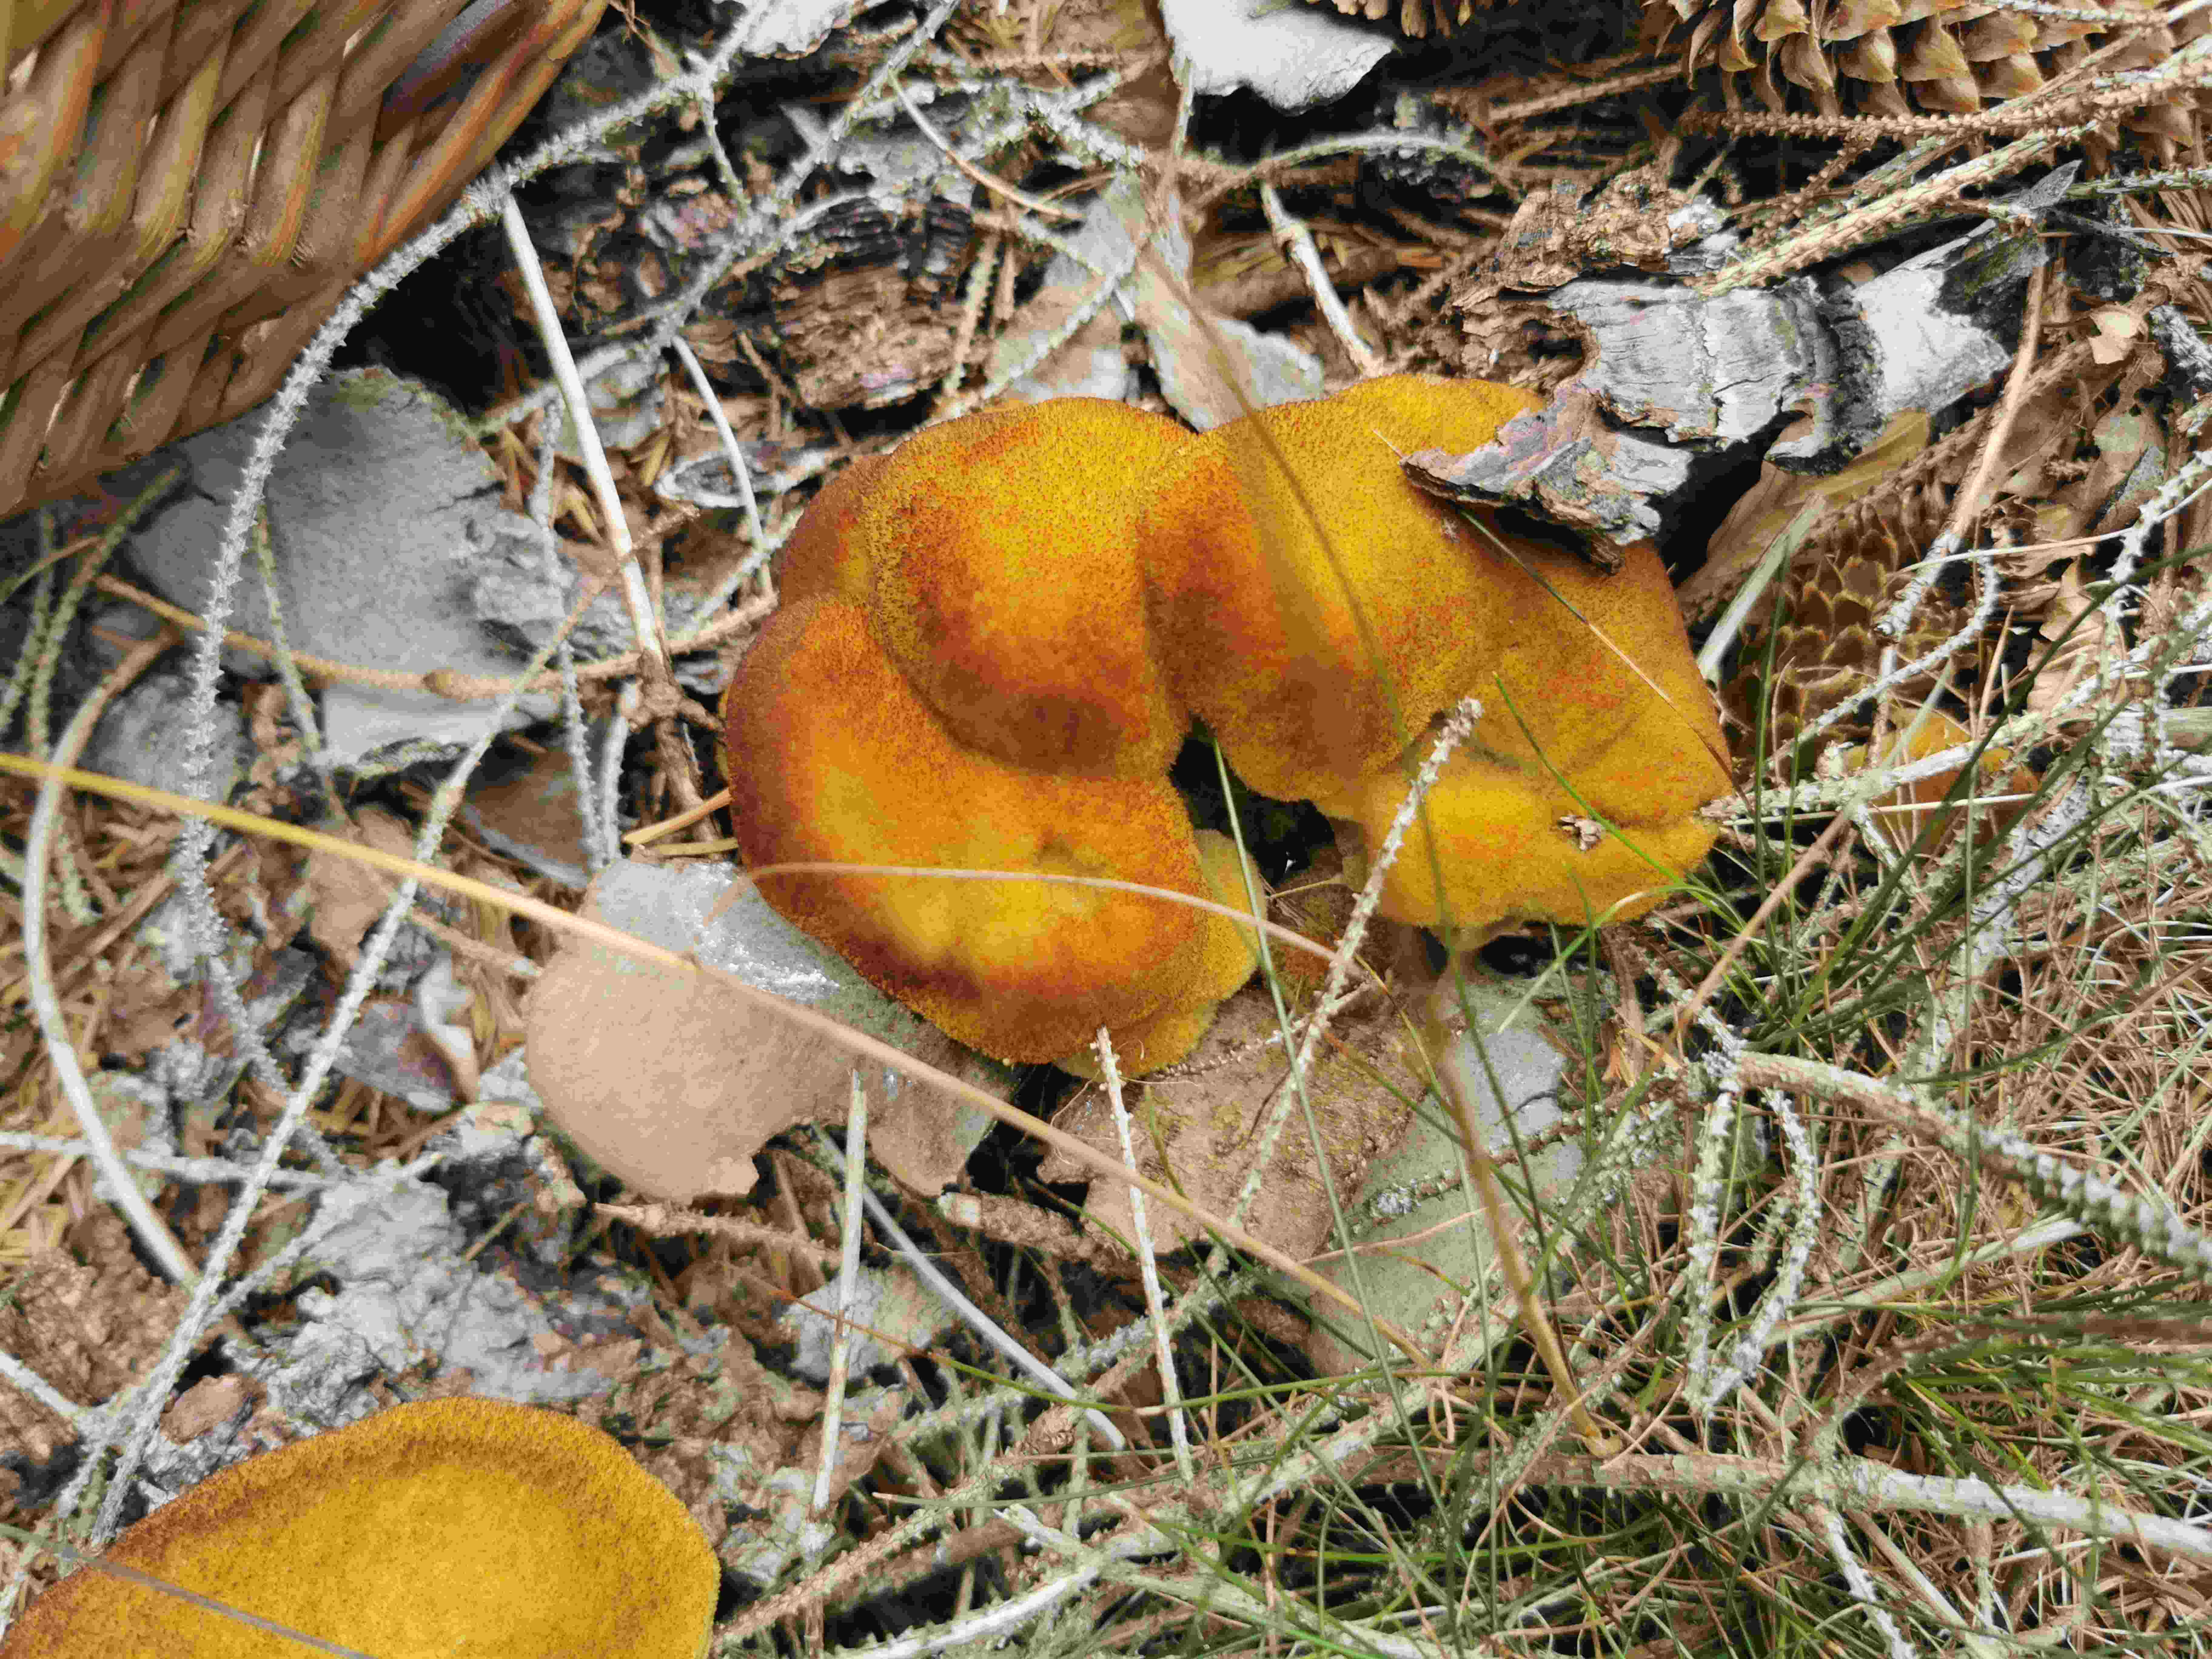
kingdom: Fungi
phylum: Basidiomycota
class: Agaricomycetes
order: Polyporales
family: Laetiporaceae
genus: Phaeolus
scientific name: Phaeolus schweinitzii
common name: brunporesvamp
